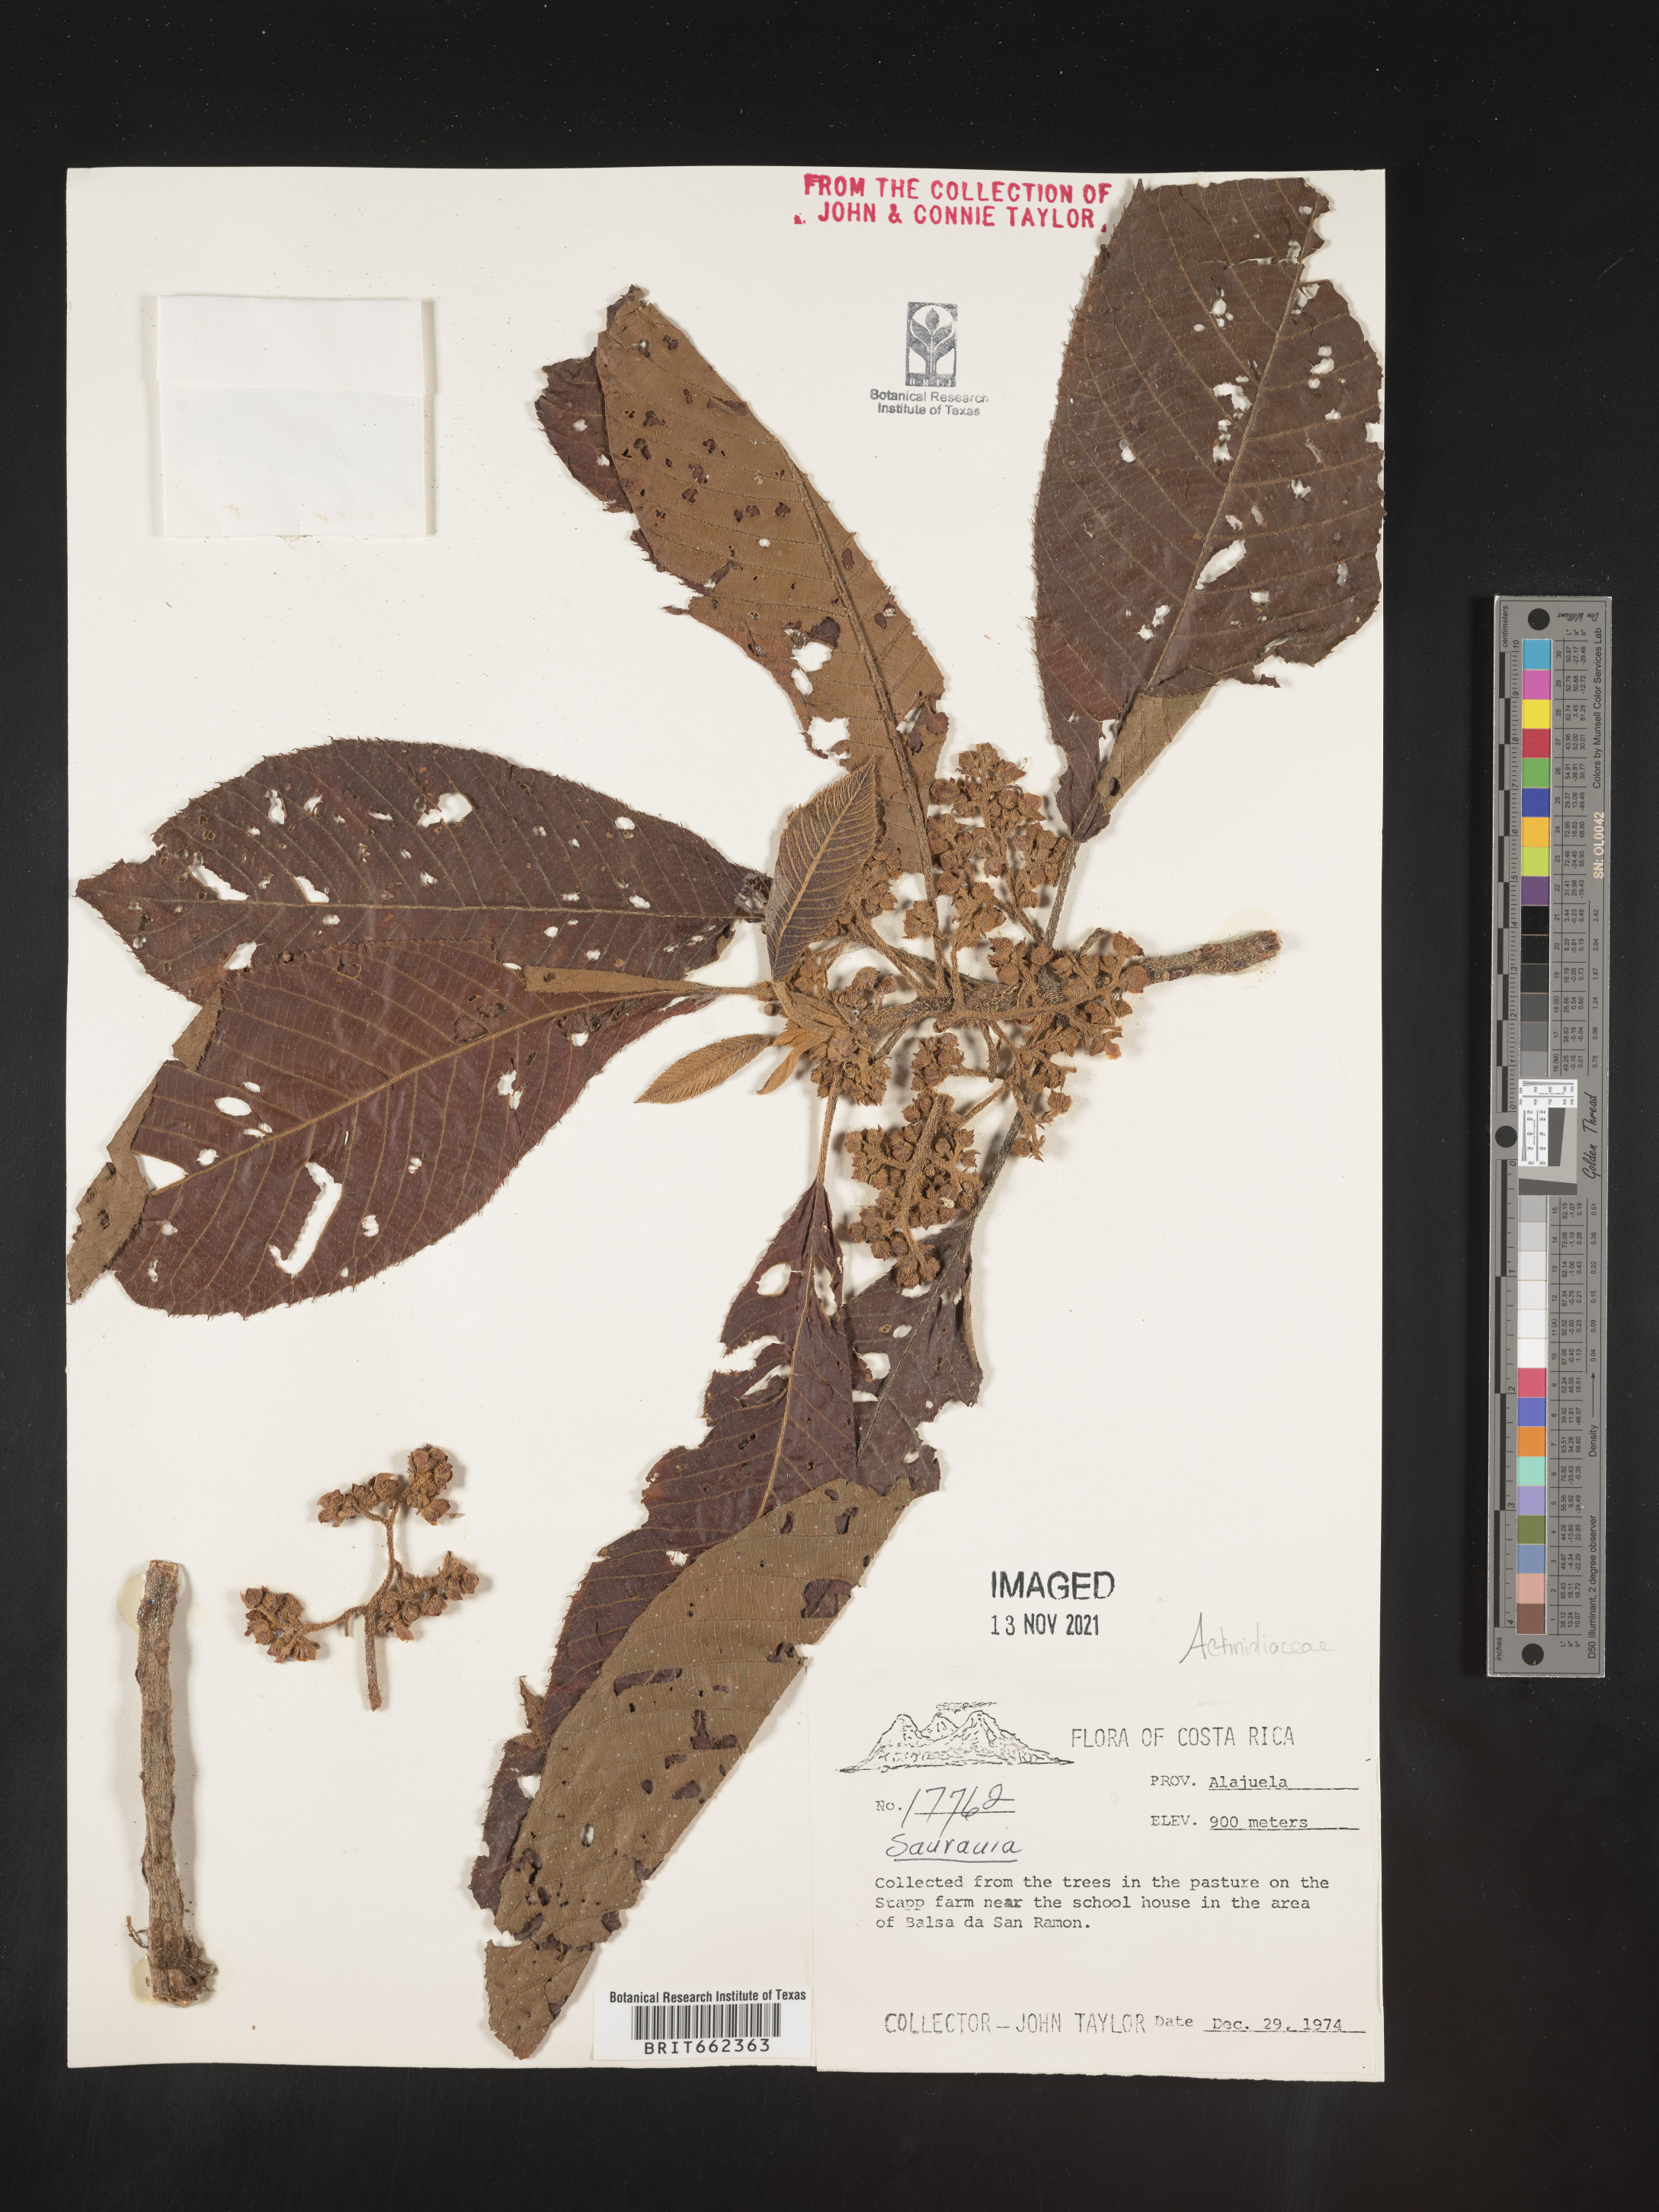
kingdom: Plantae
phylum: Tracheophyta
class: Magnoliopsida
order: Ericales
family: Actinidiaceae
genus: Saurauia
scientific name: Saurauia
